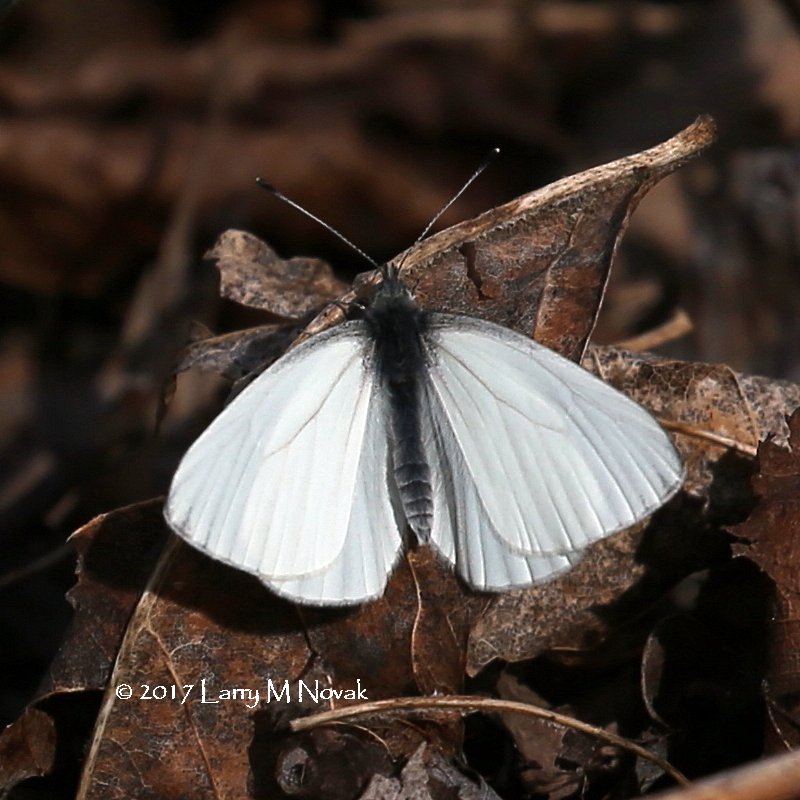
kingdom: Animalia
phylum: Arthropoda
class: Insecta
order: Lepidoptera
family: Pieridae
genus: Pieris
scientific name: Pieris oleracea
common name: Mustard White
